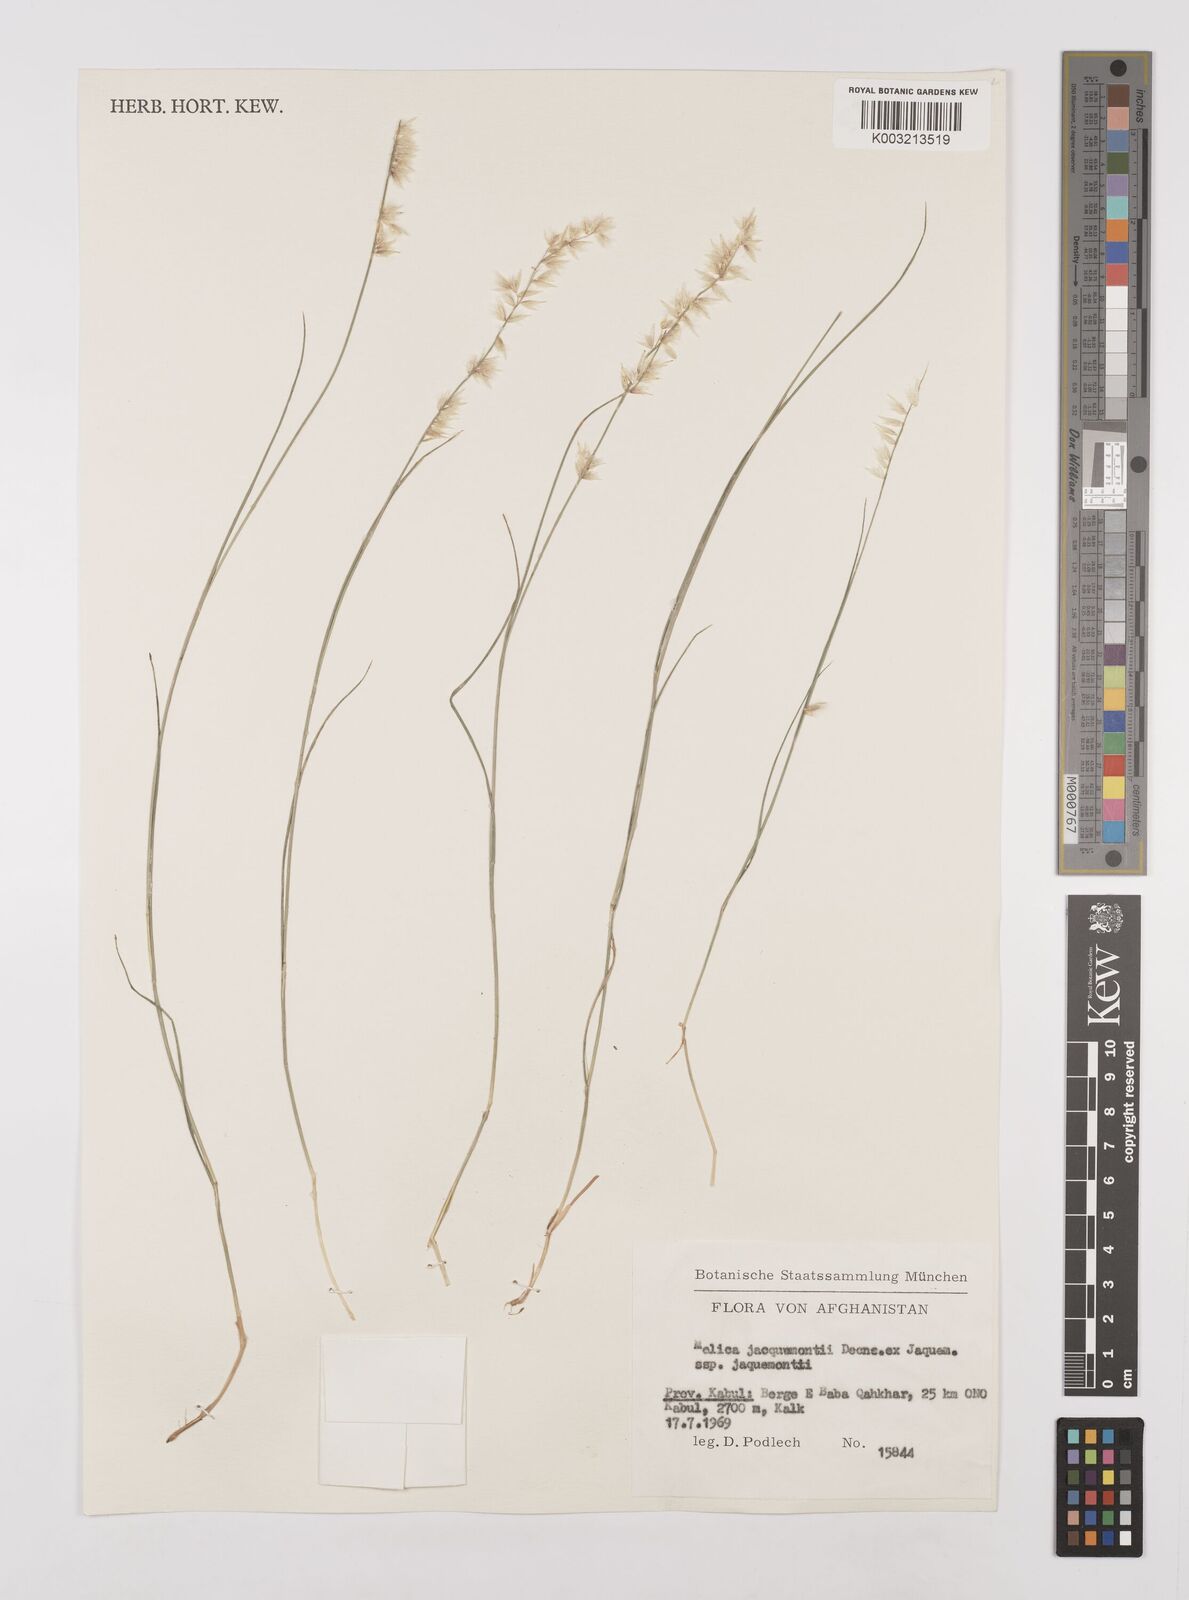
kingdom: Plantae
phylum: Tracheophyta
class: Liliopsida
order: Poales
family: Poaceae
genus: Melica
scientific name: Melica persica
